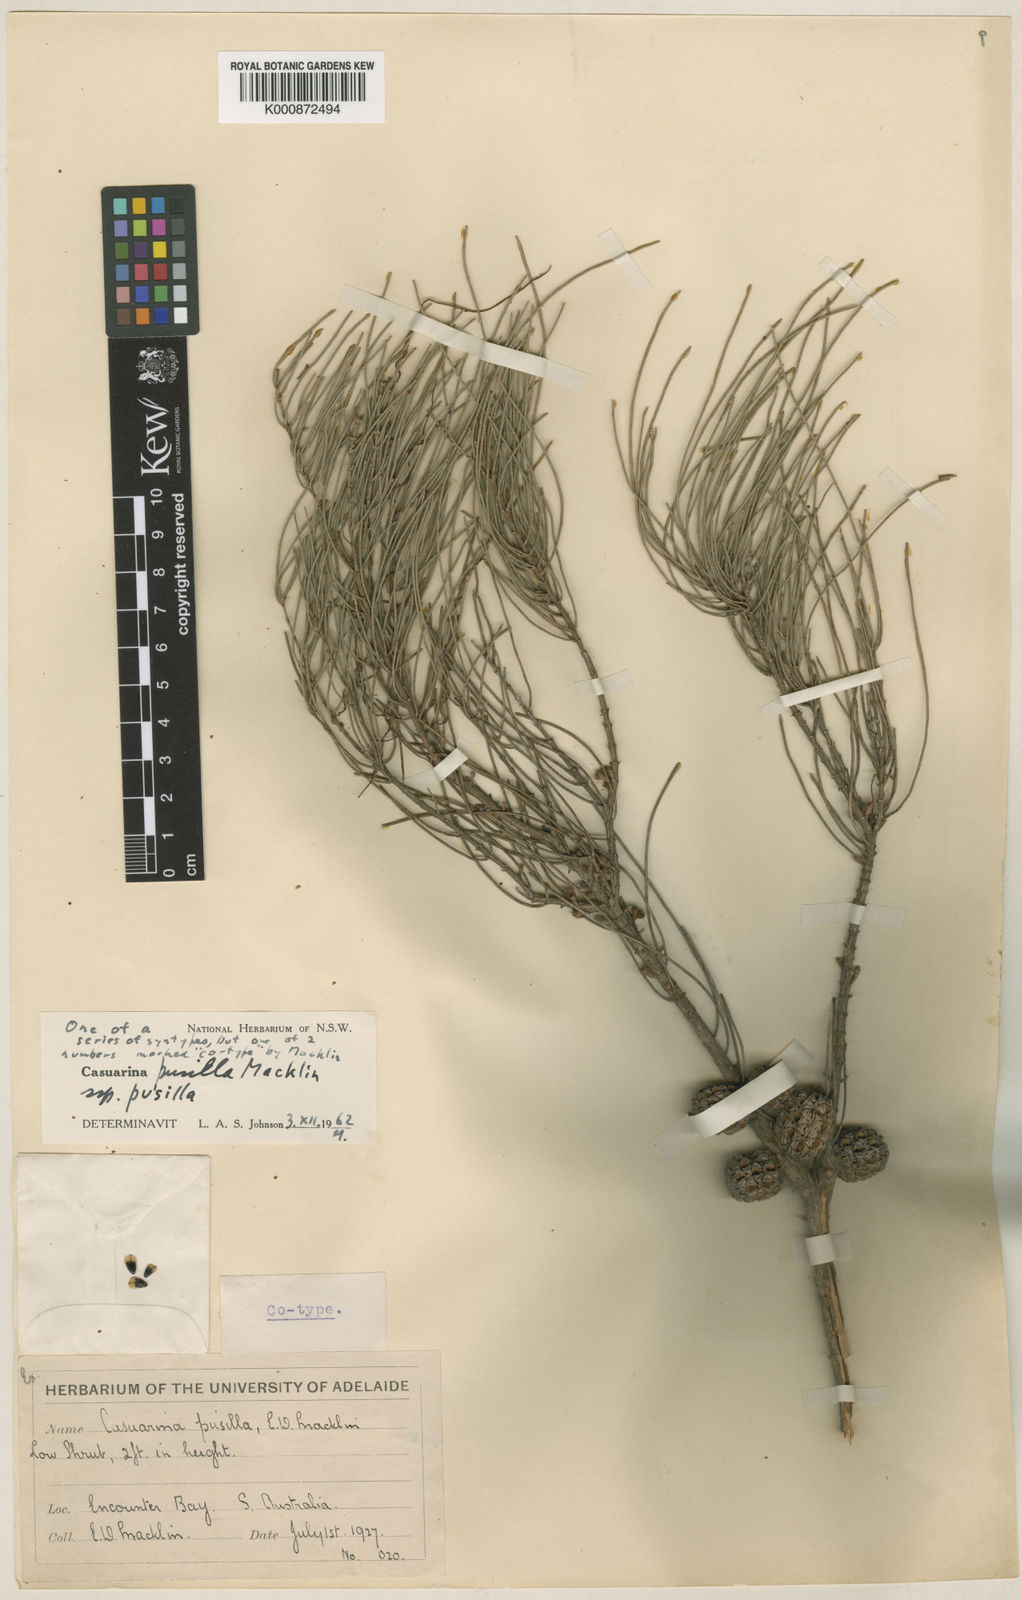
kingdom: Plantae
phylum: Tracheophyta
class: Magnoliopsida
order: Fagales
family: Casuarinaceae
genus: Allocasuarina
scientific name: Allocasuarina pusilla
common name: Dwarf she-oak
